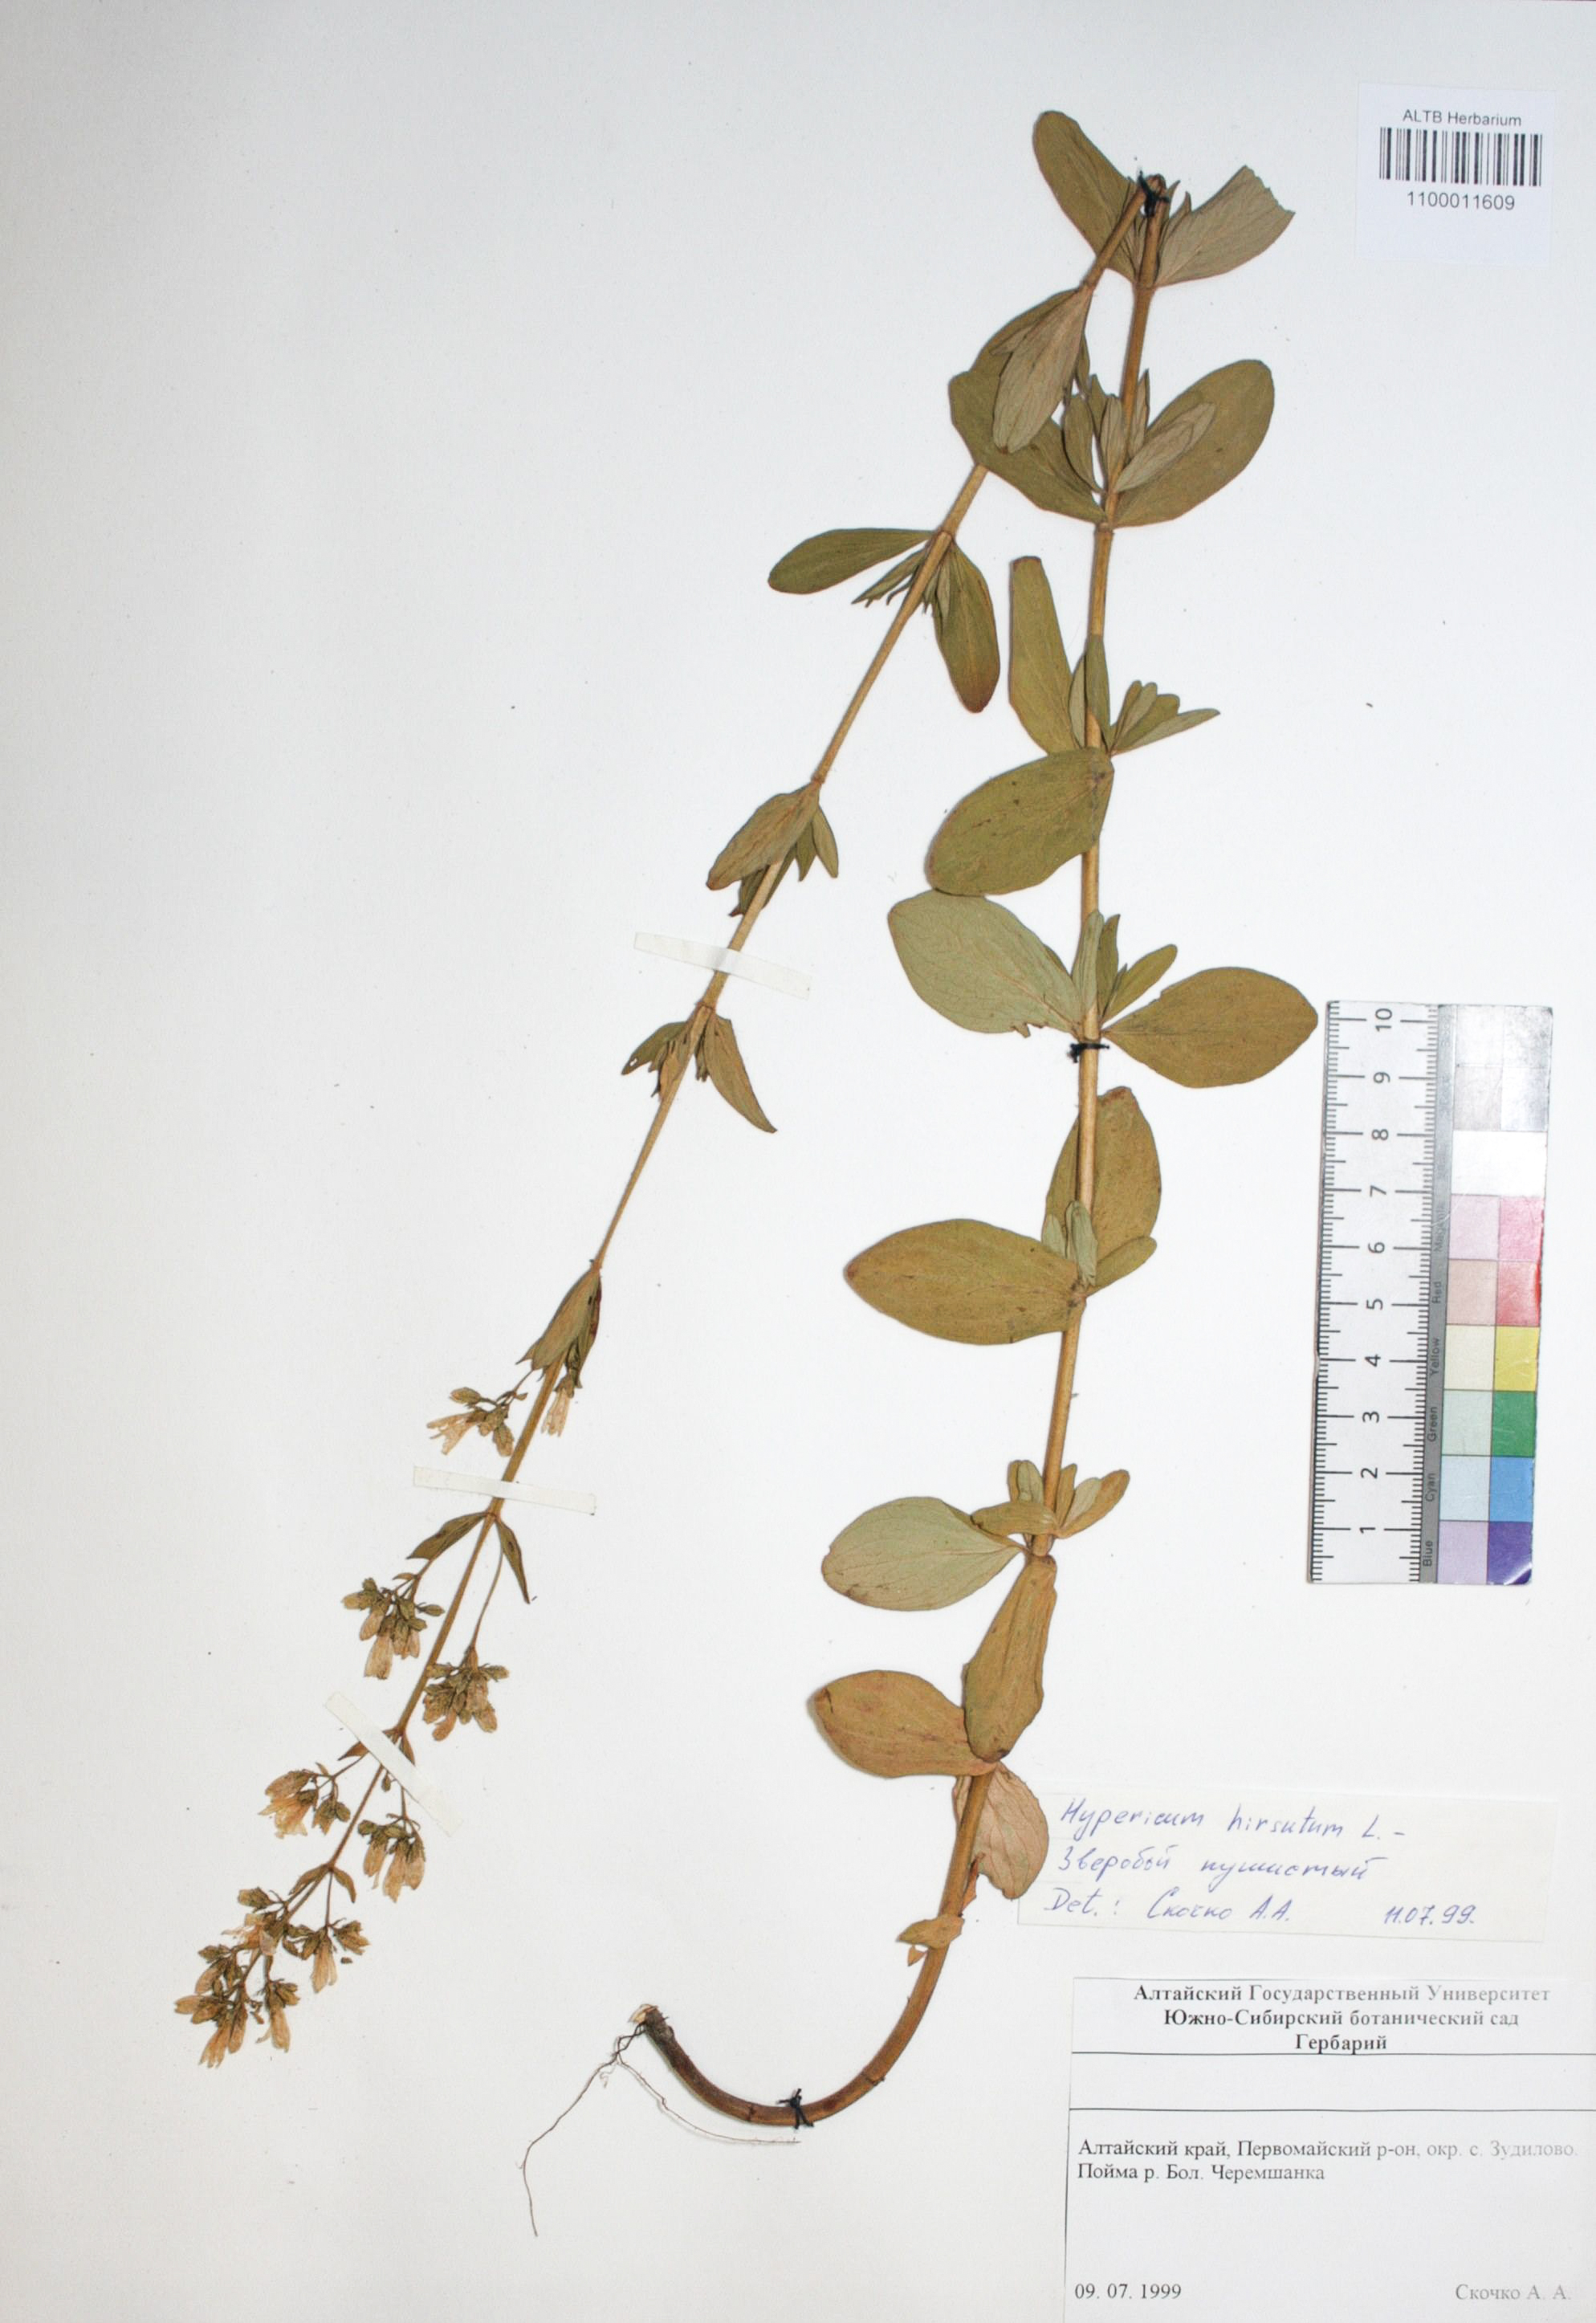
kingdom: Plantae
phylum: Tracheophyta
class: Magnoliopsida
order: Malpighiales
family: Hypericaceae
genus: Hypericum
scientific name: Hypericum hirsutum
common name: Hairy st. john's-wort
